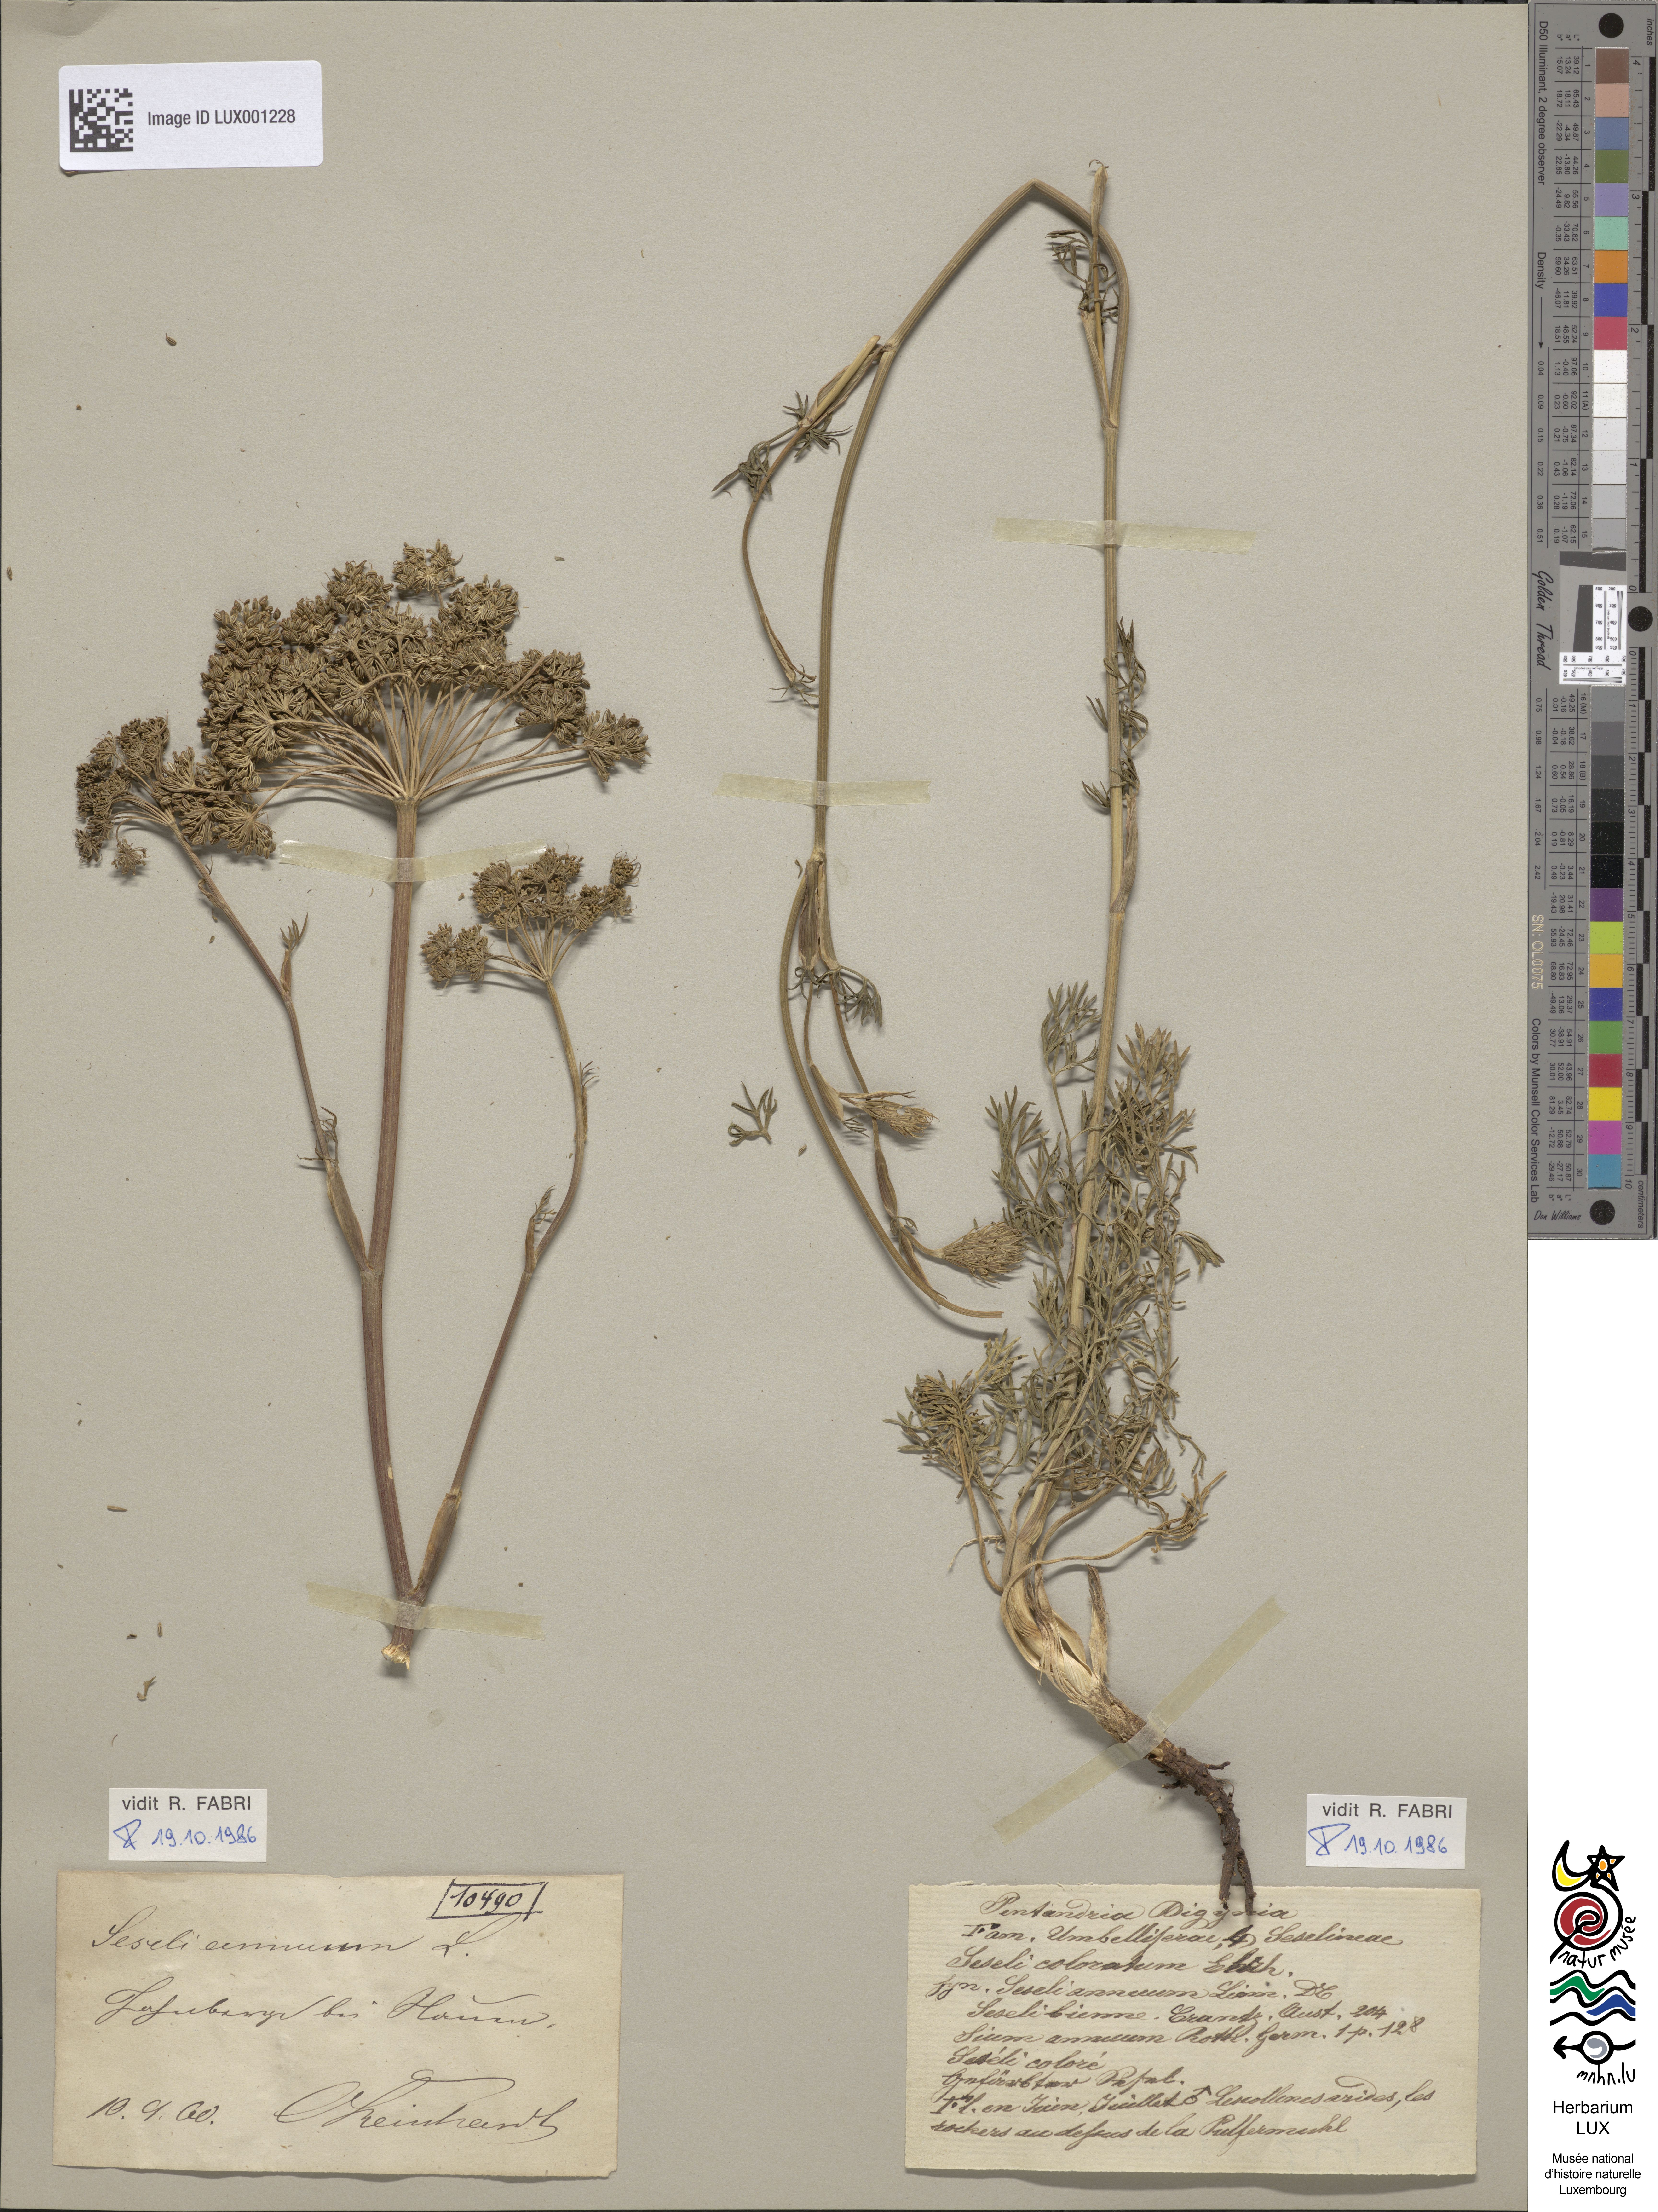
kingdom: Plantae
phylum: Tracheophyta
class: Magnoliopsida
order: Apiales
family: Apiaceae
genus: Seseli
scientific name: Seseli annuum
